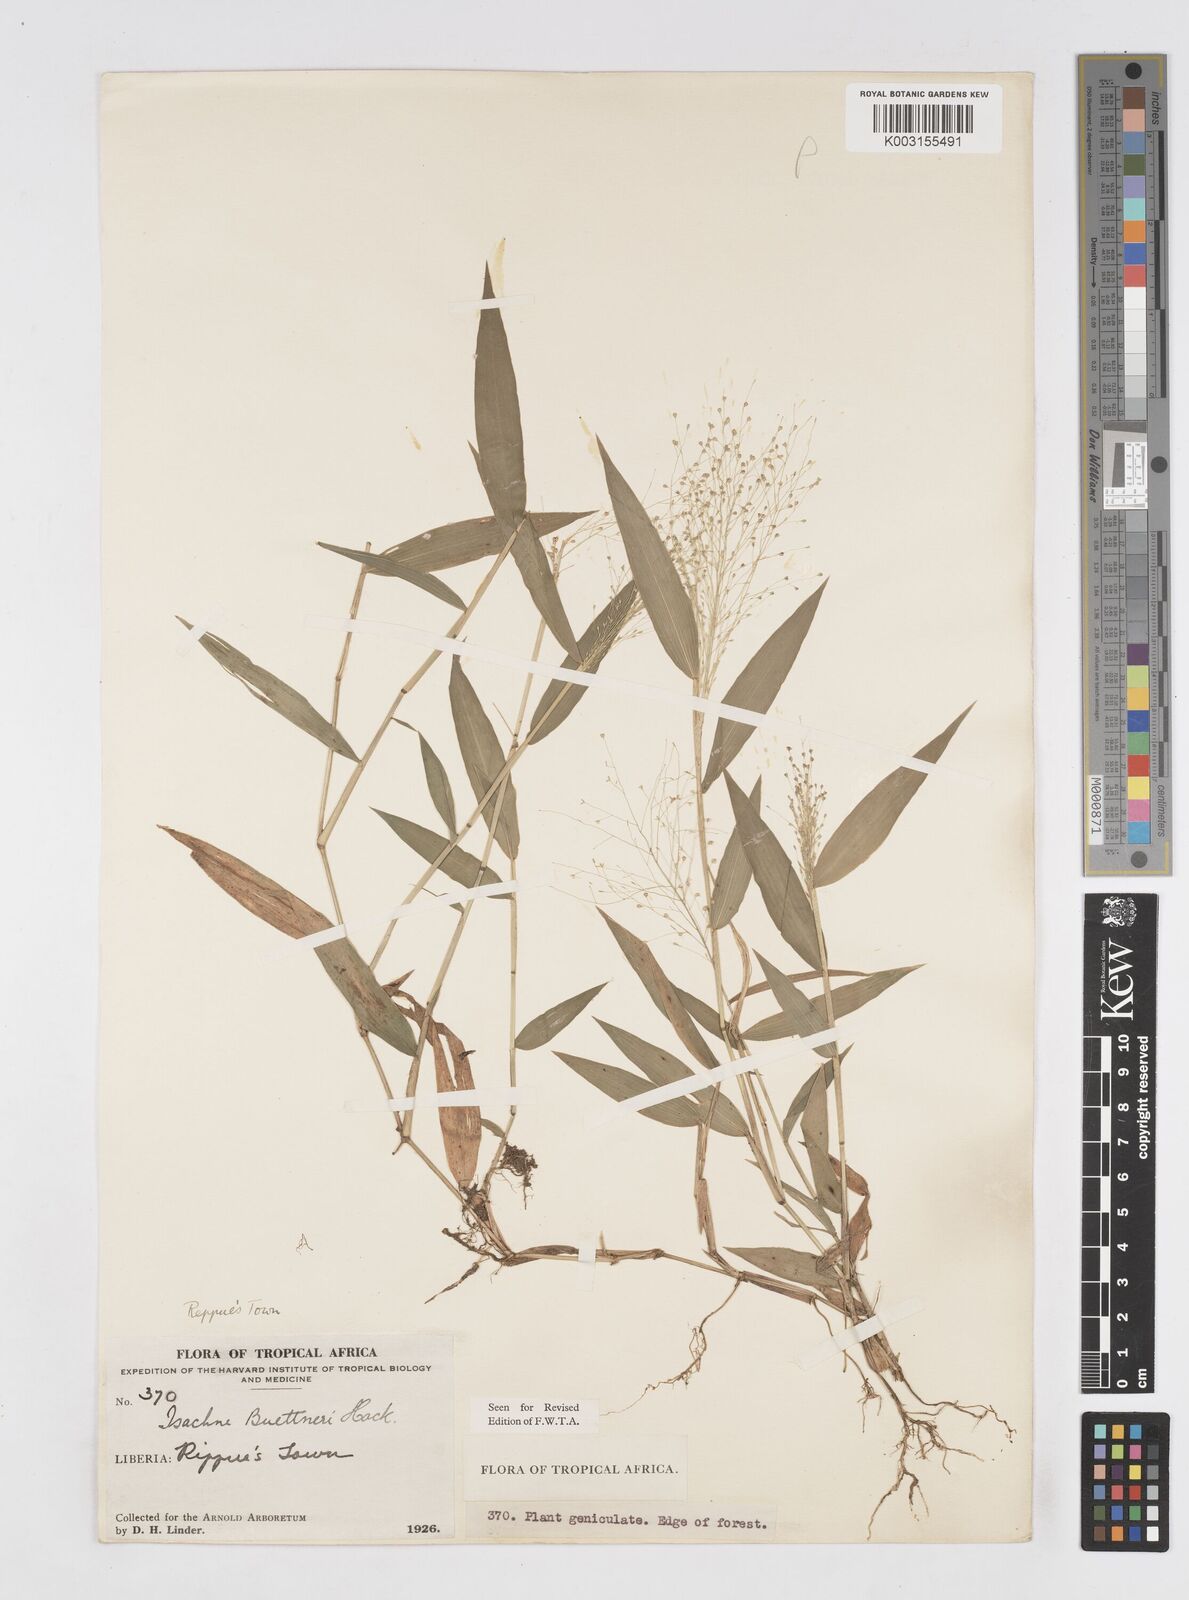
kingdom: Plantae
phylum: Tracheophyta
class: Liliopsida
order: Poales
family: Poaceae
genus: Isachne
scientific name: Isachne albens
